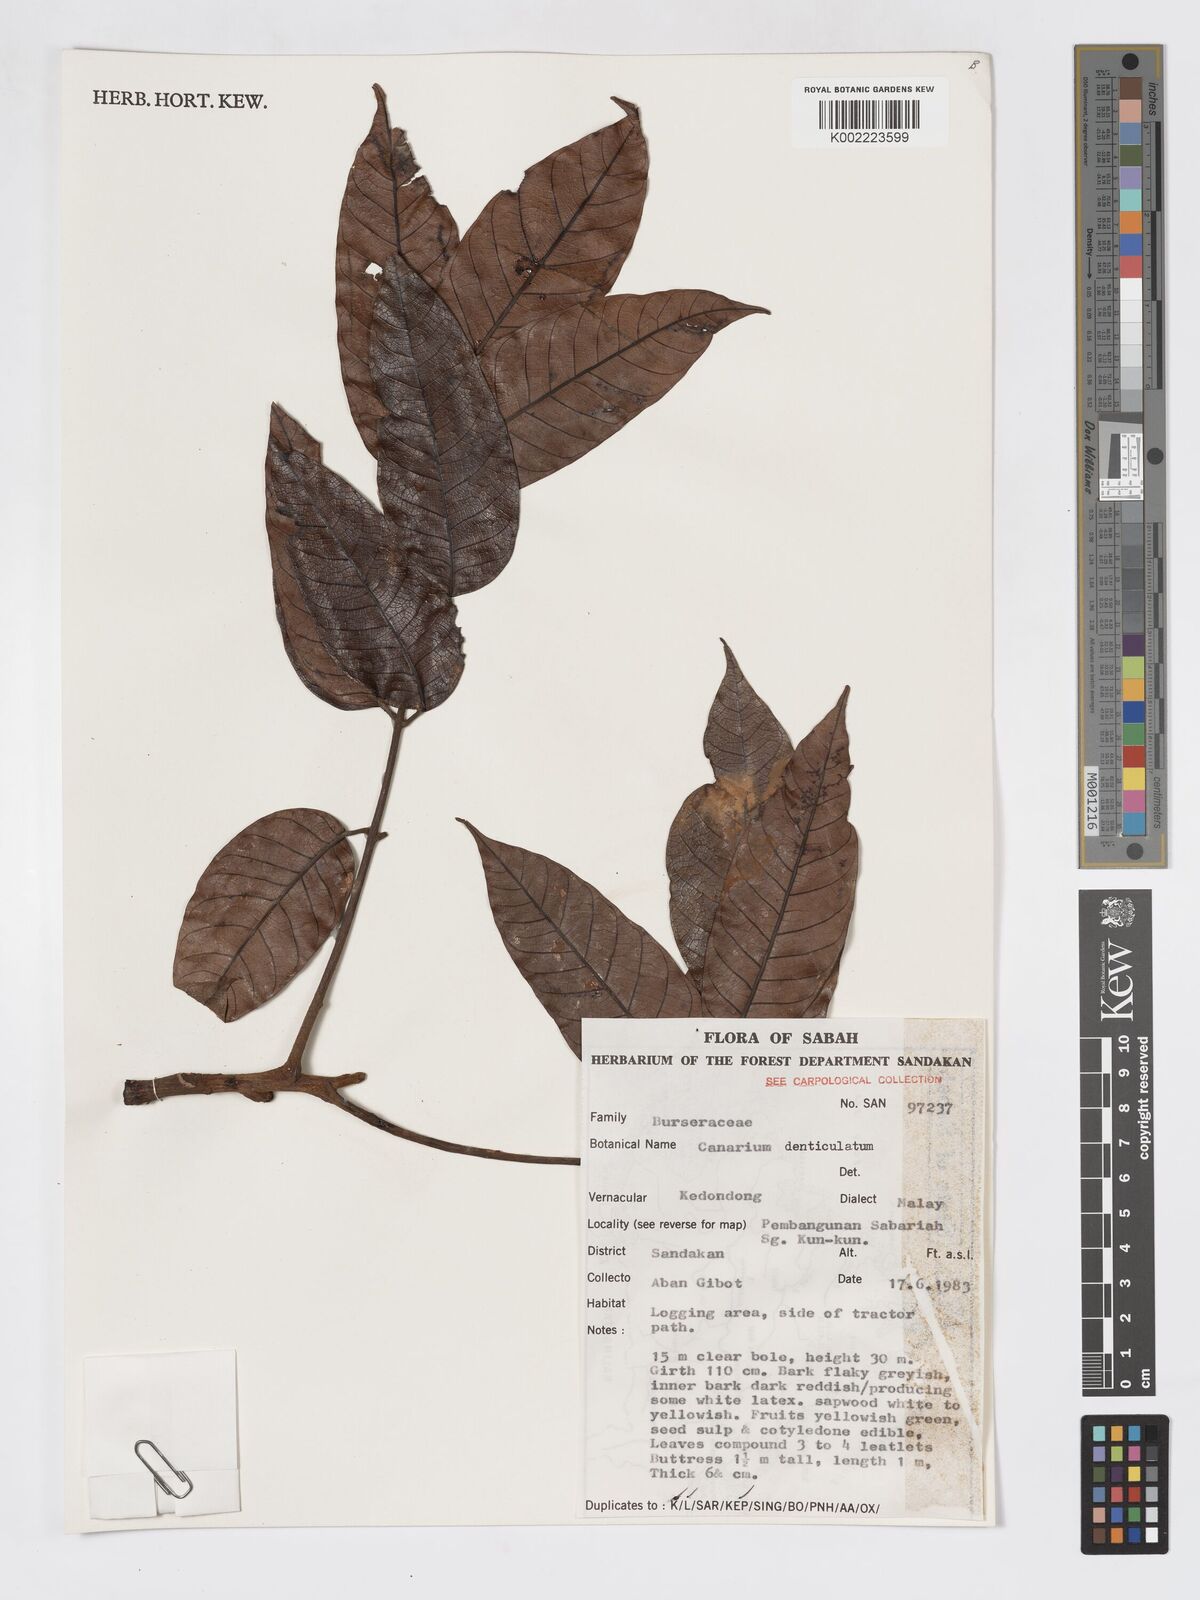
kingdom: Plantae
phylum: Tracheophyta
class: Magnoliopsida
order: Sapindales
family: Burseraceae
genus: Canarium
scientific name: Canarium denticulatum
